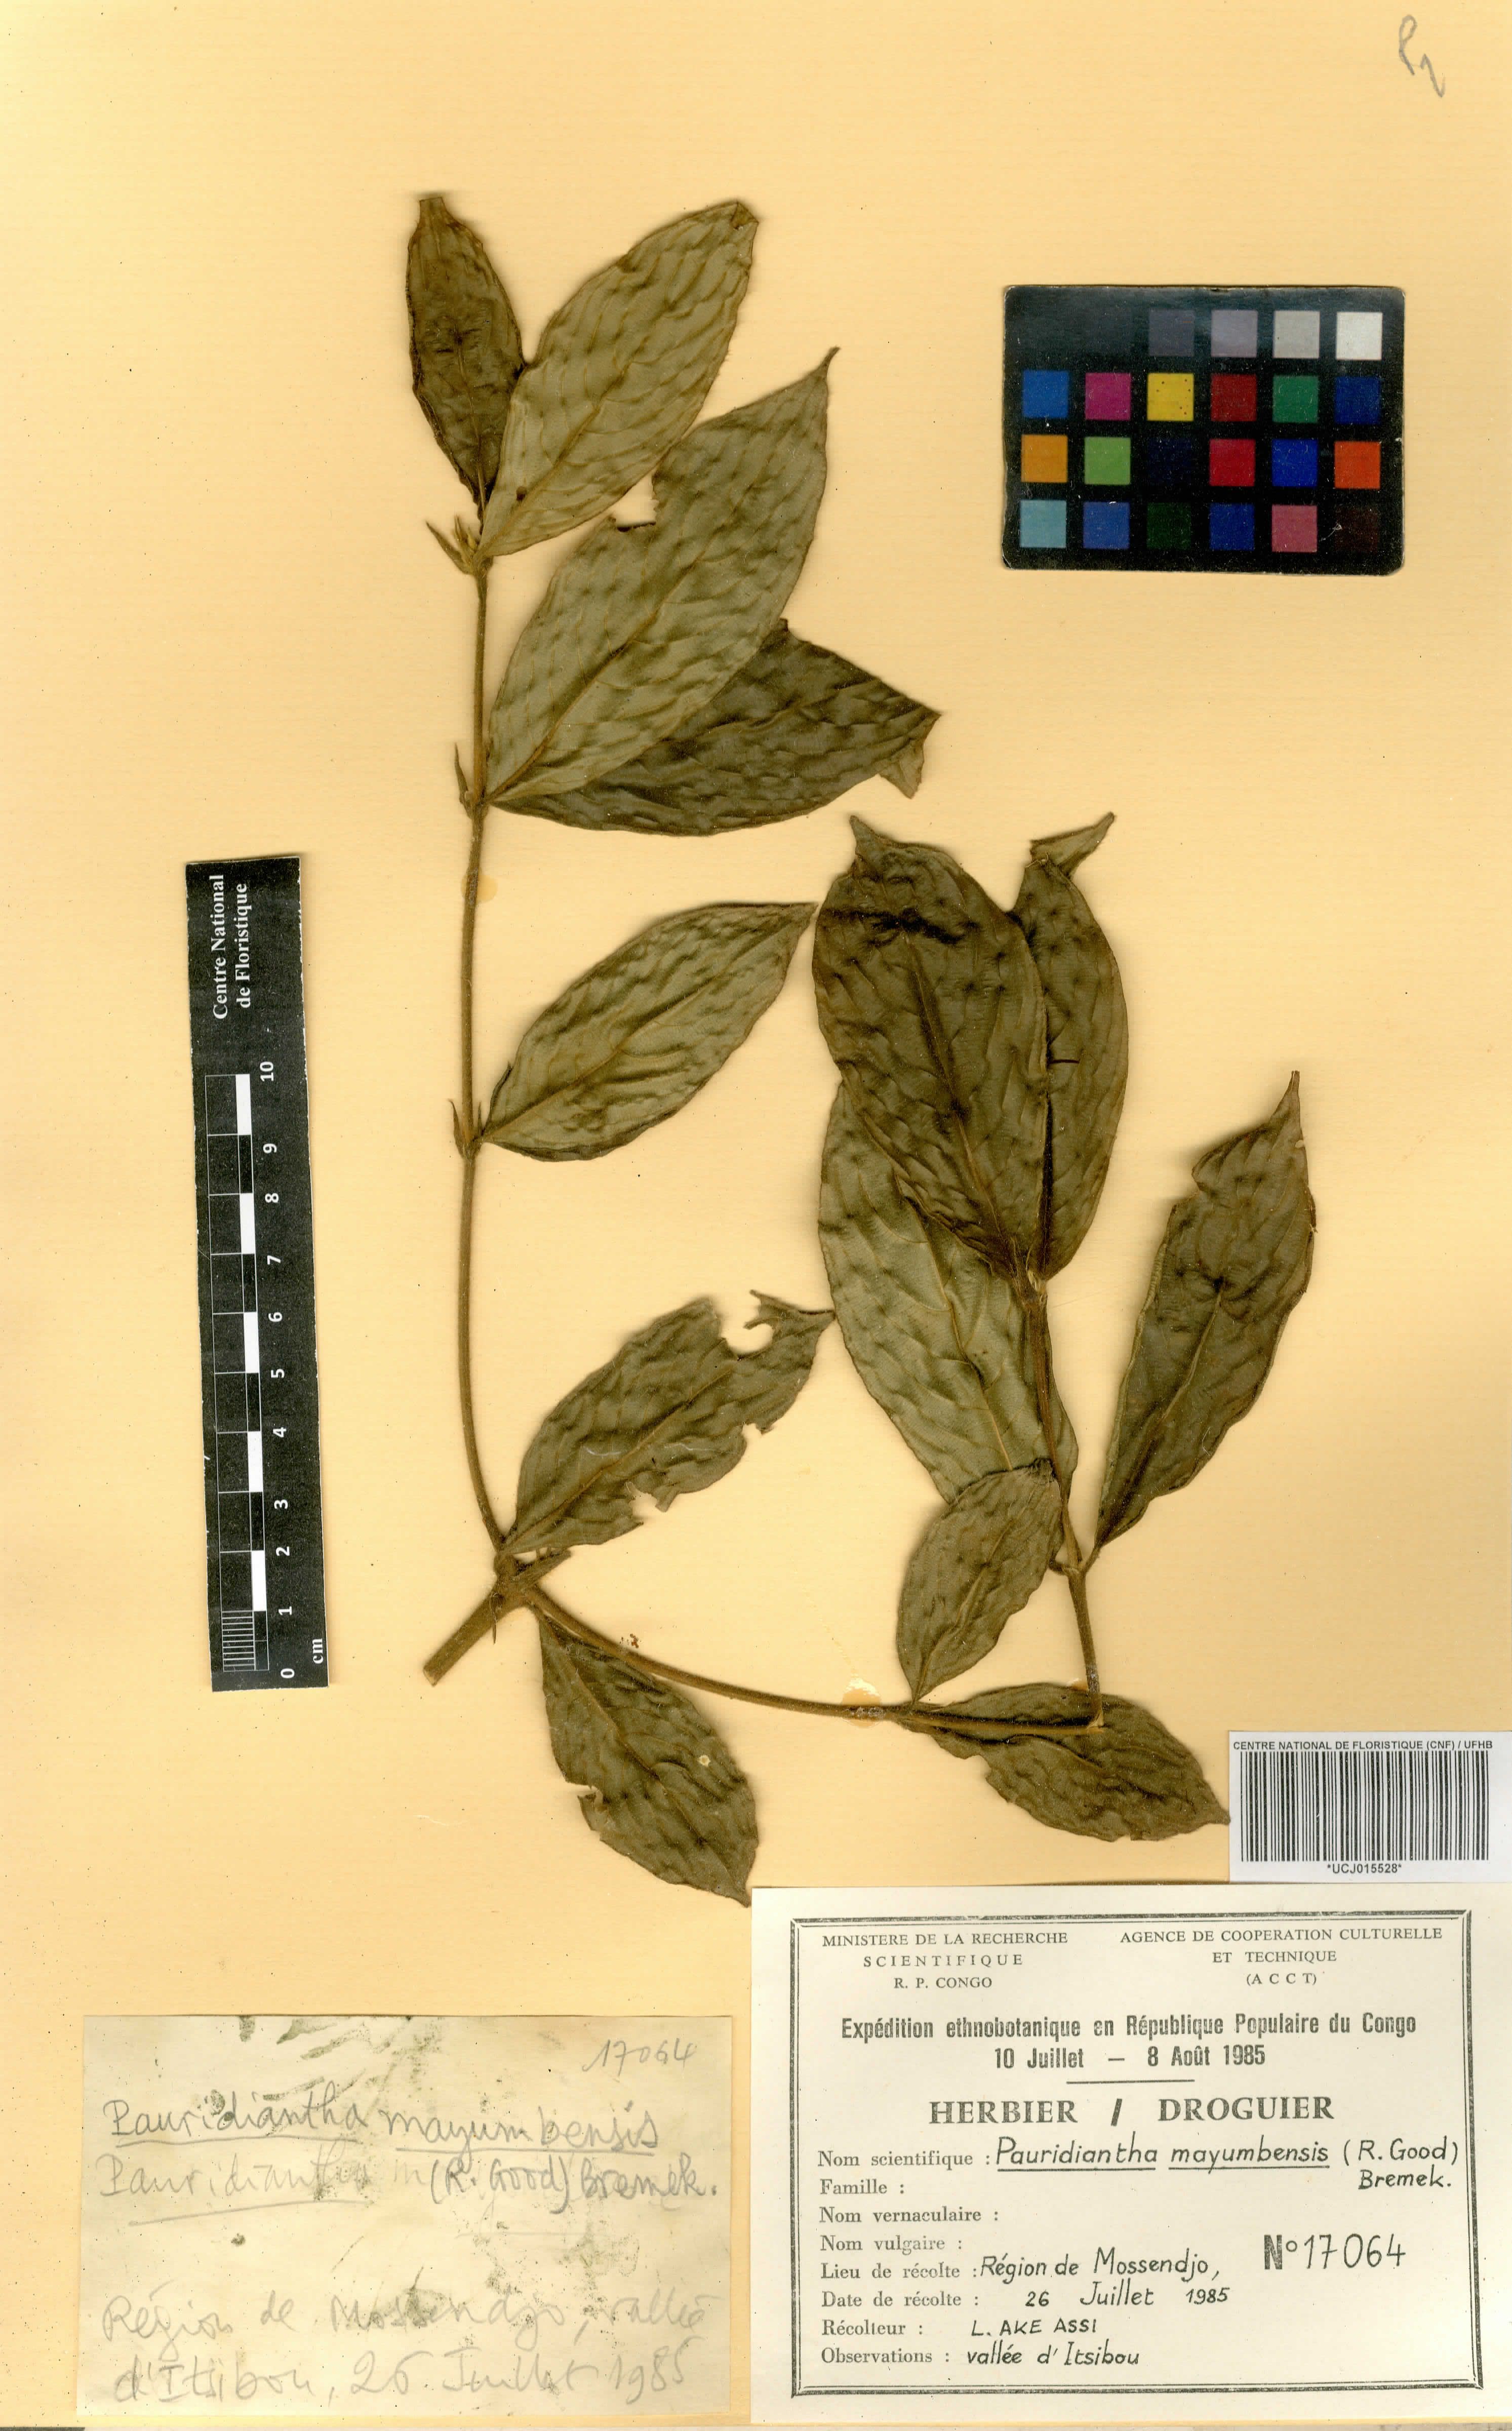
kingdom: Plantae
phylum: Tracheophyta
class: Magnoliopsida
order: Gentianales
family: Rubiaceae
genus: Pauridiantha
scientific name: Pauridiantha mayumbensis
